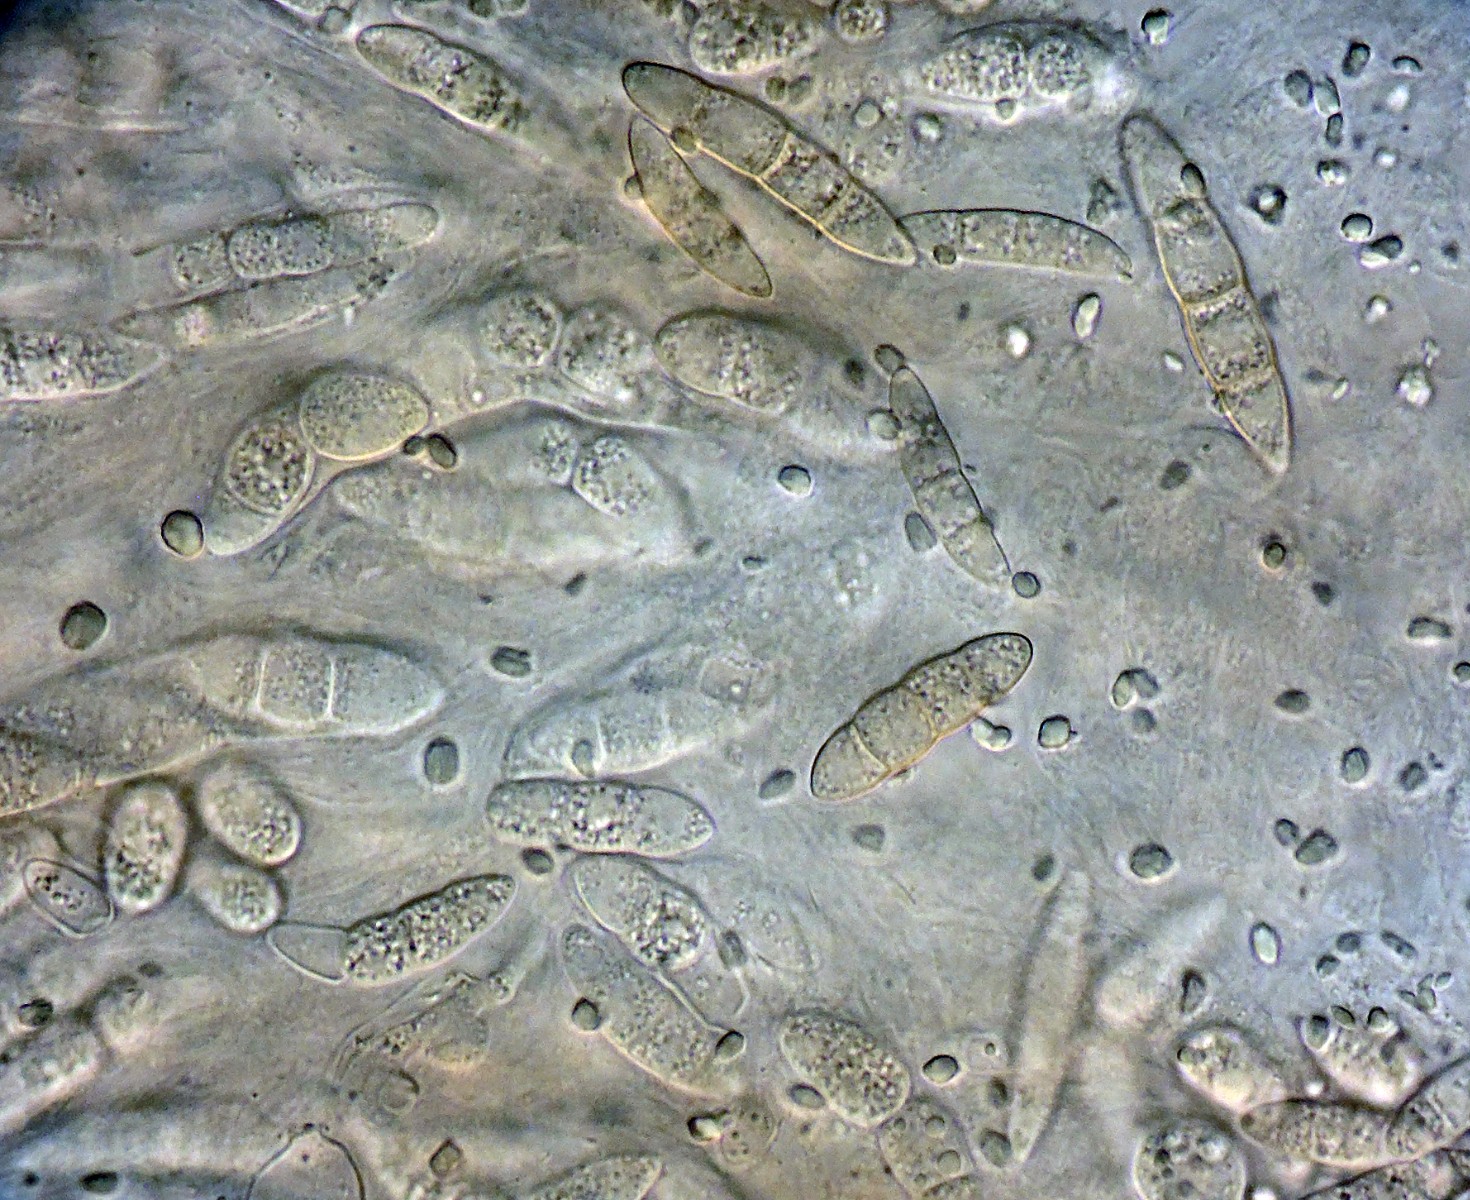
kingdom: Fungi
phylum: Ascomycota
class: Sordariomycetes
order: Hypocreales
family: Nectriaceae
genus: Fusarium
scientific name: Fusarium roseum
